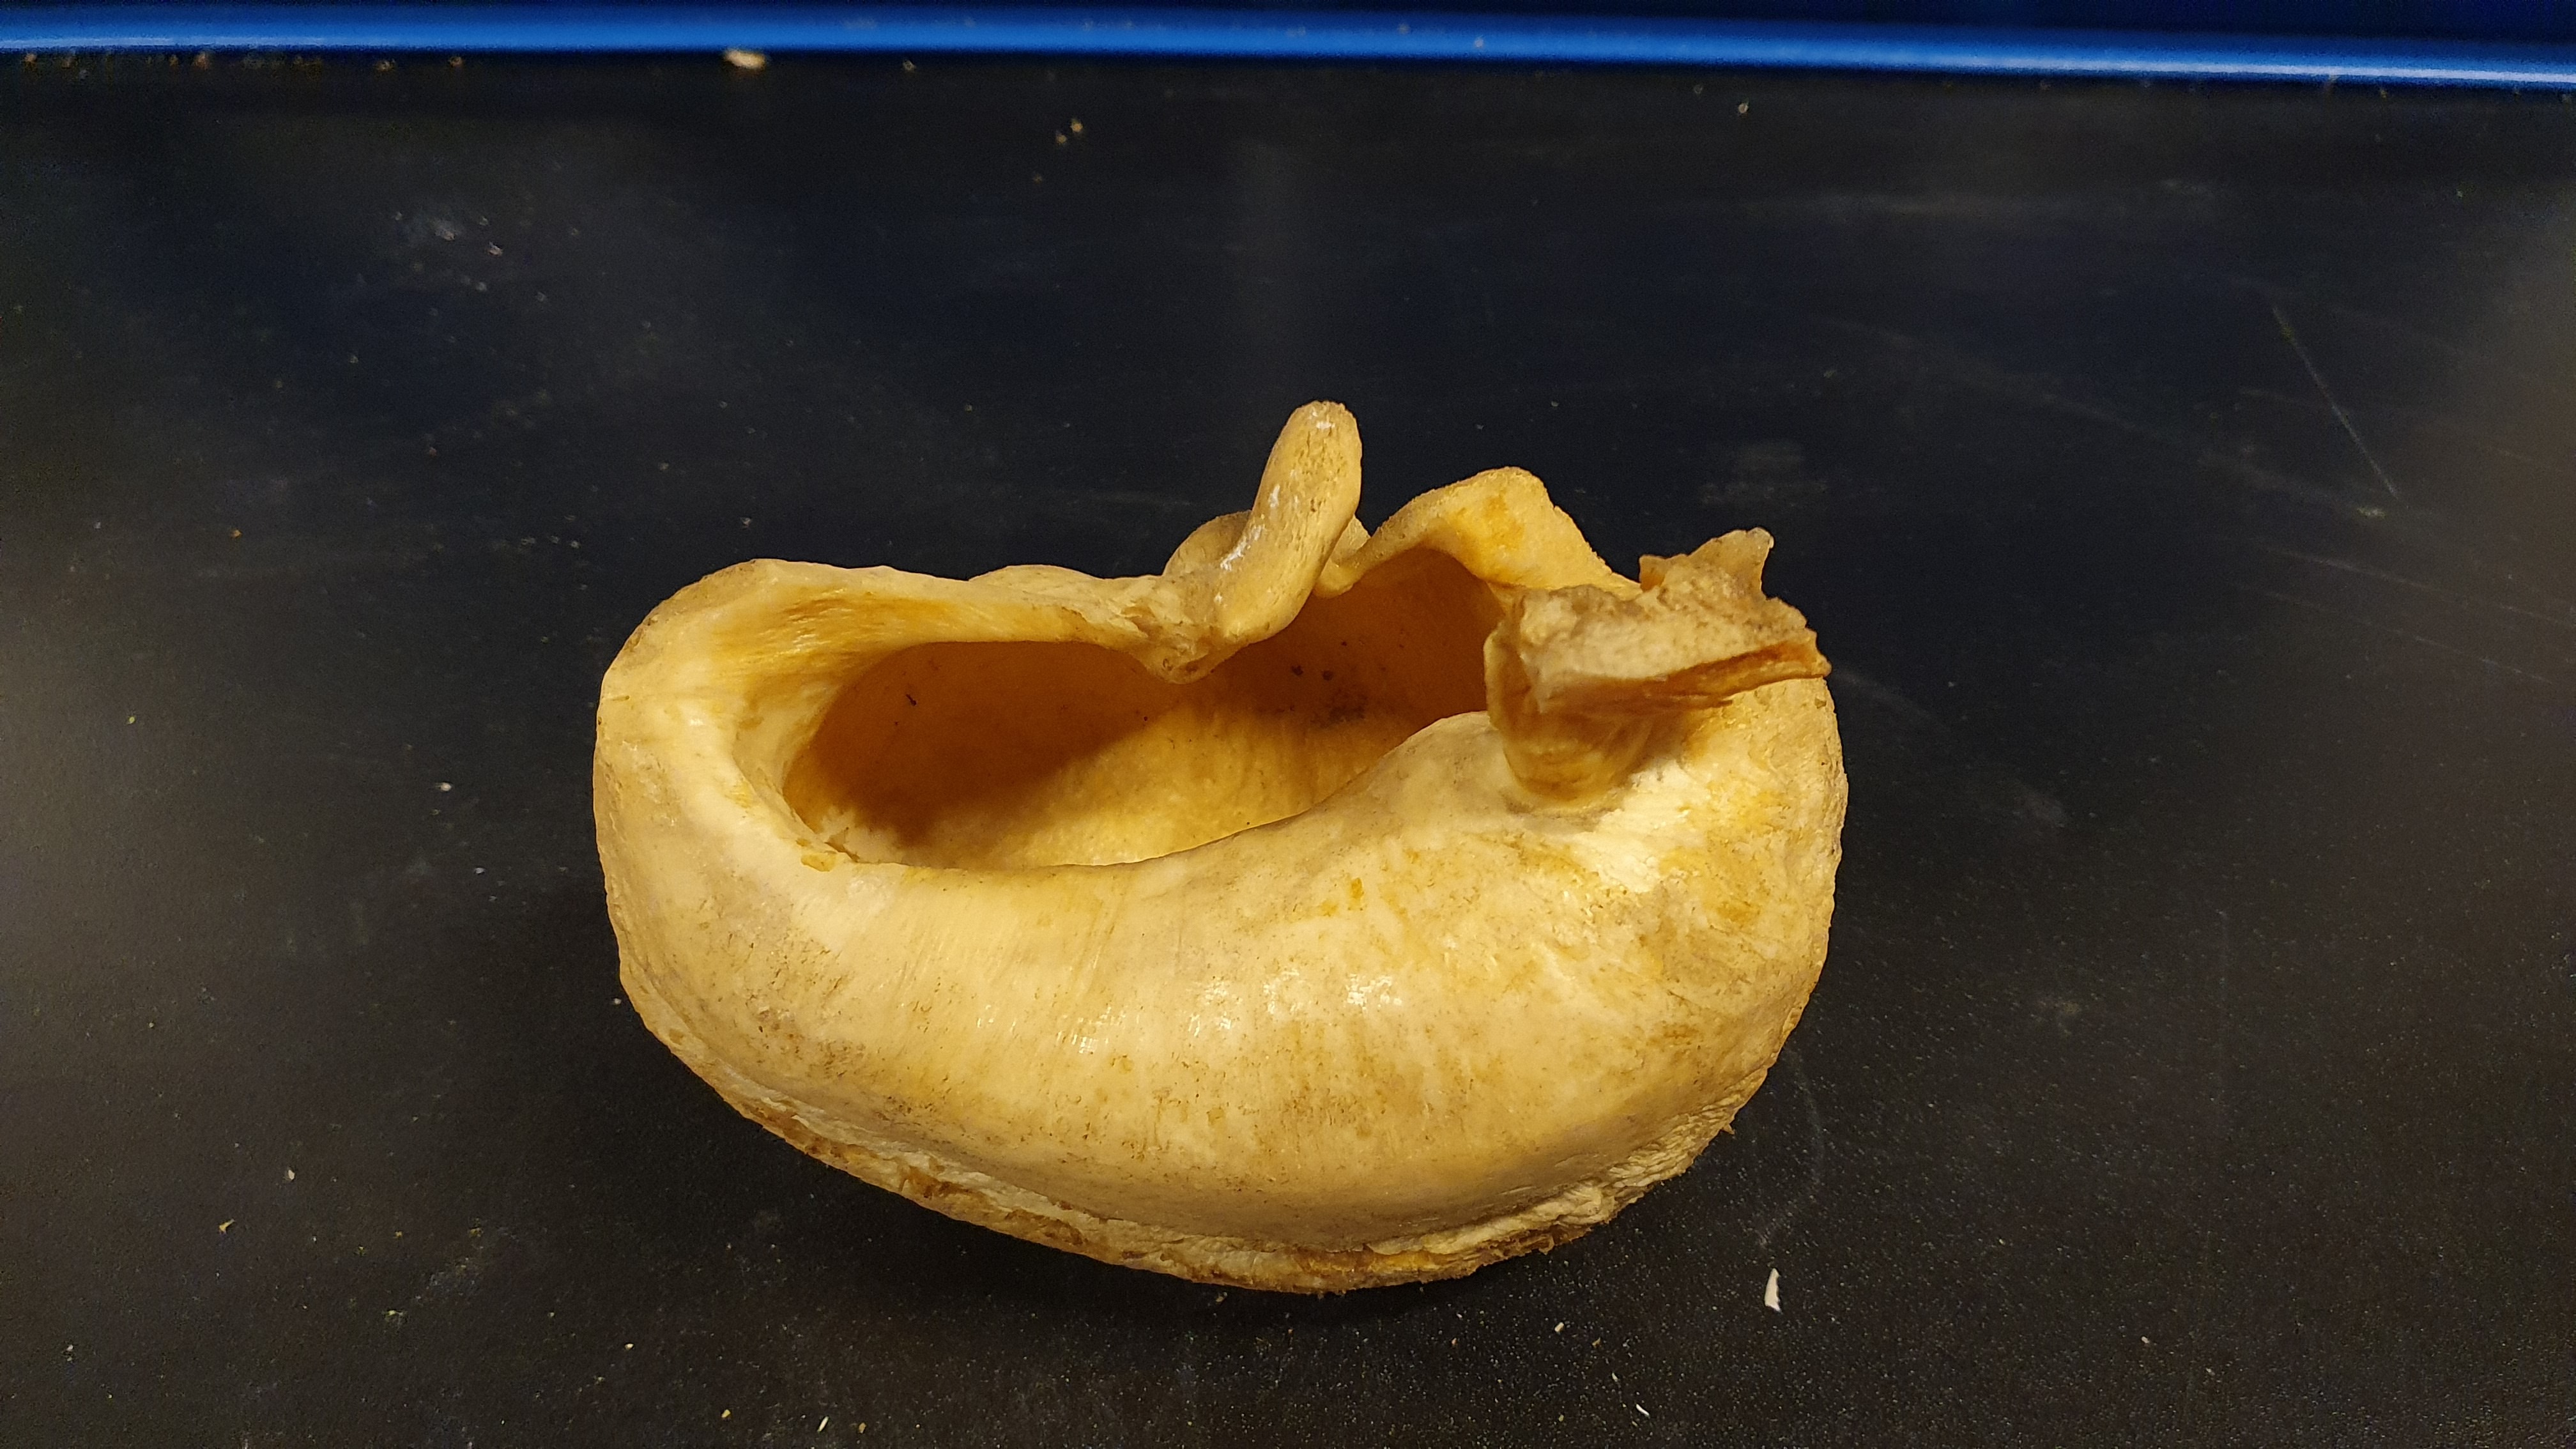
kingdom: Animalia
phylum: Chordata
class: Mammalia
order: Cetacea
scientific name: Cetacea
